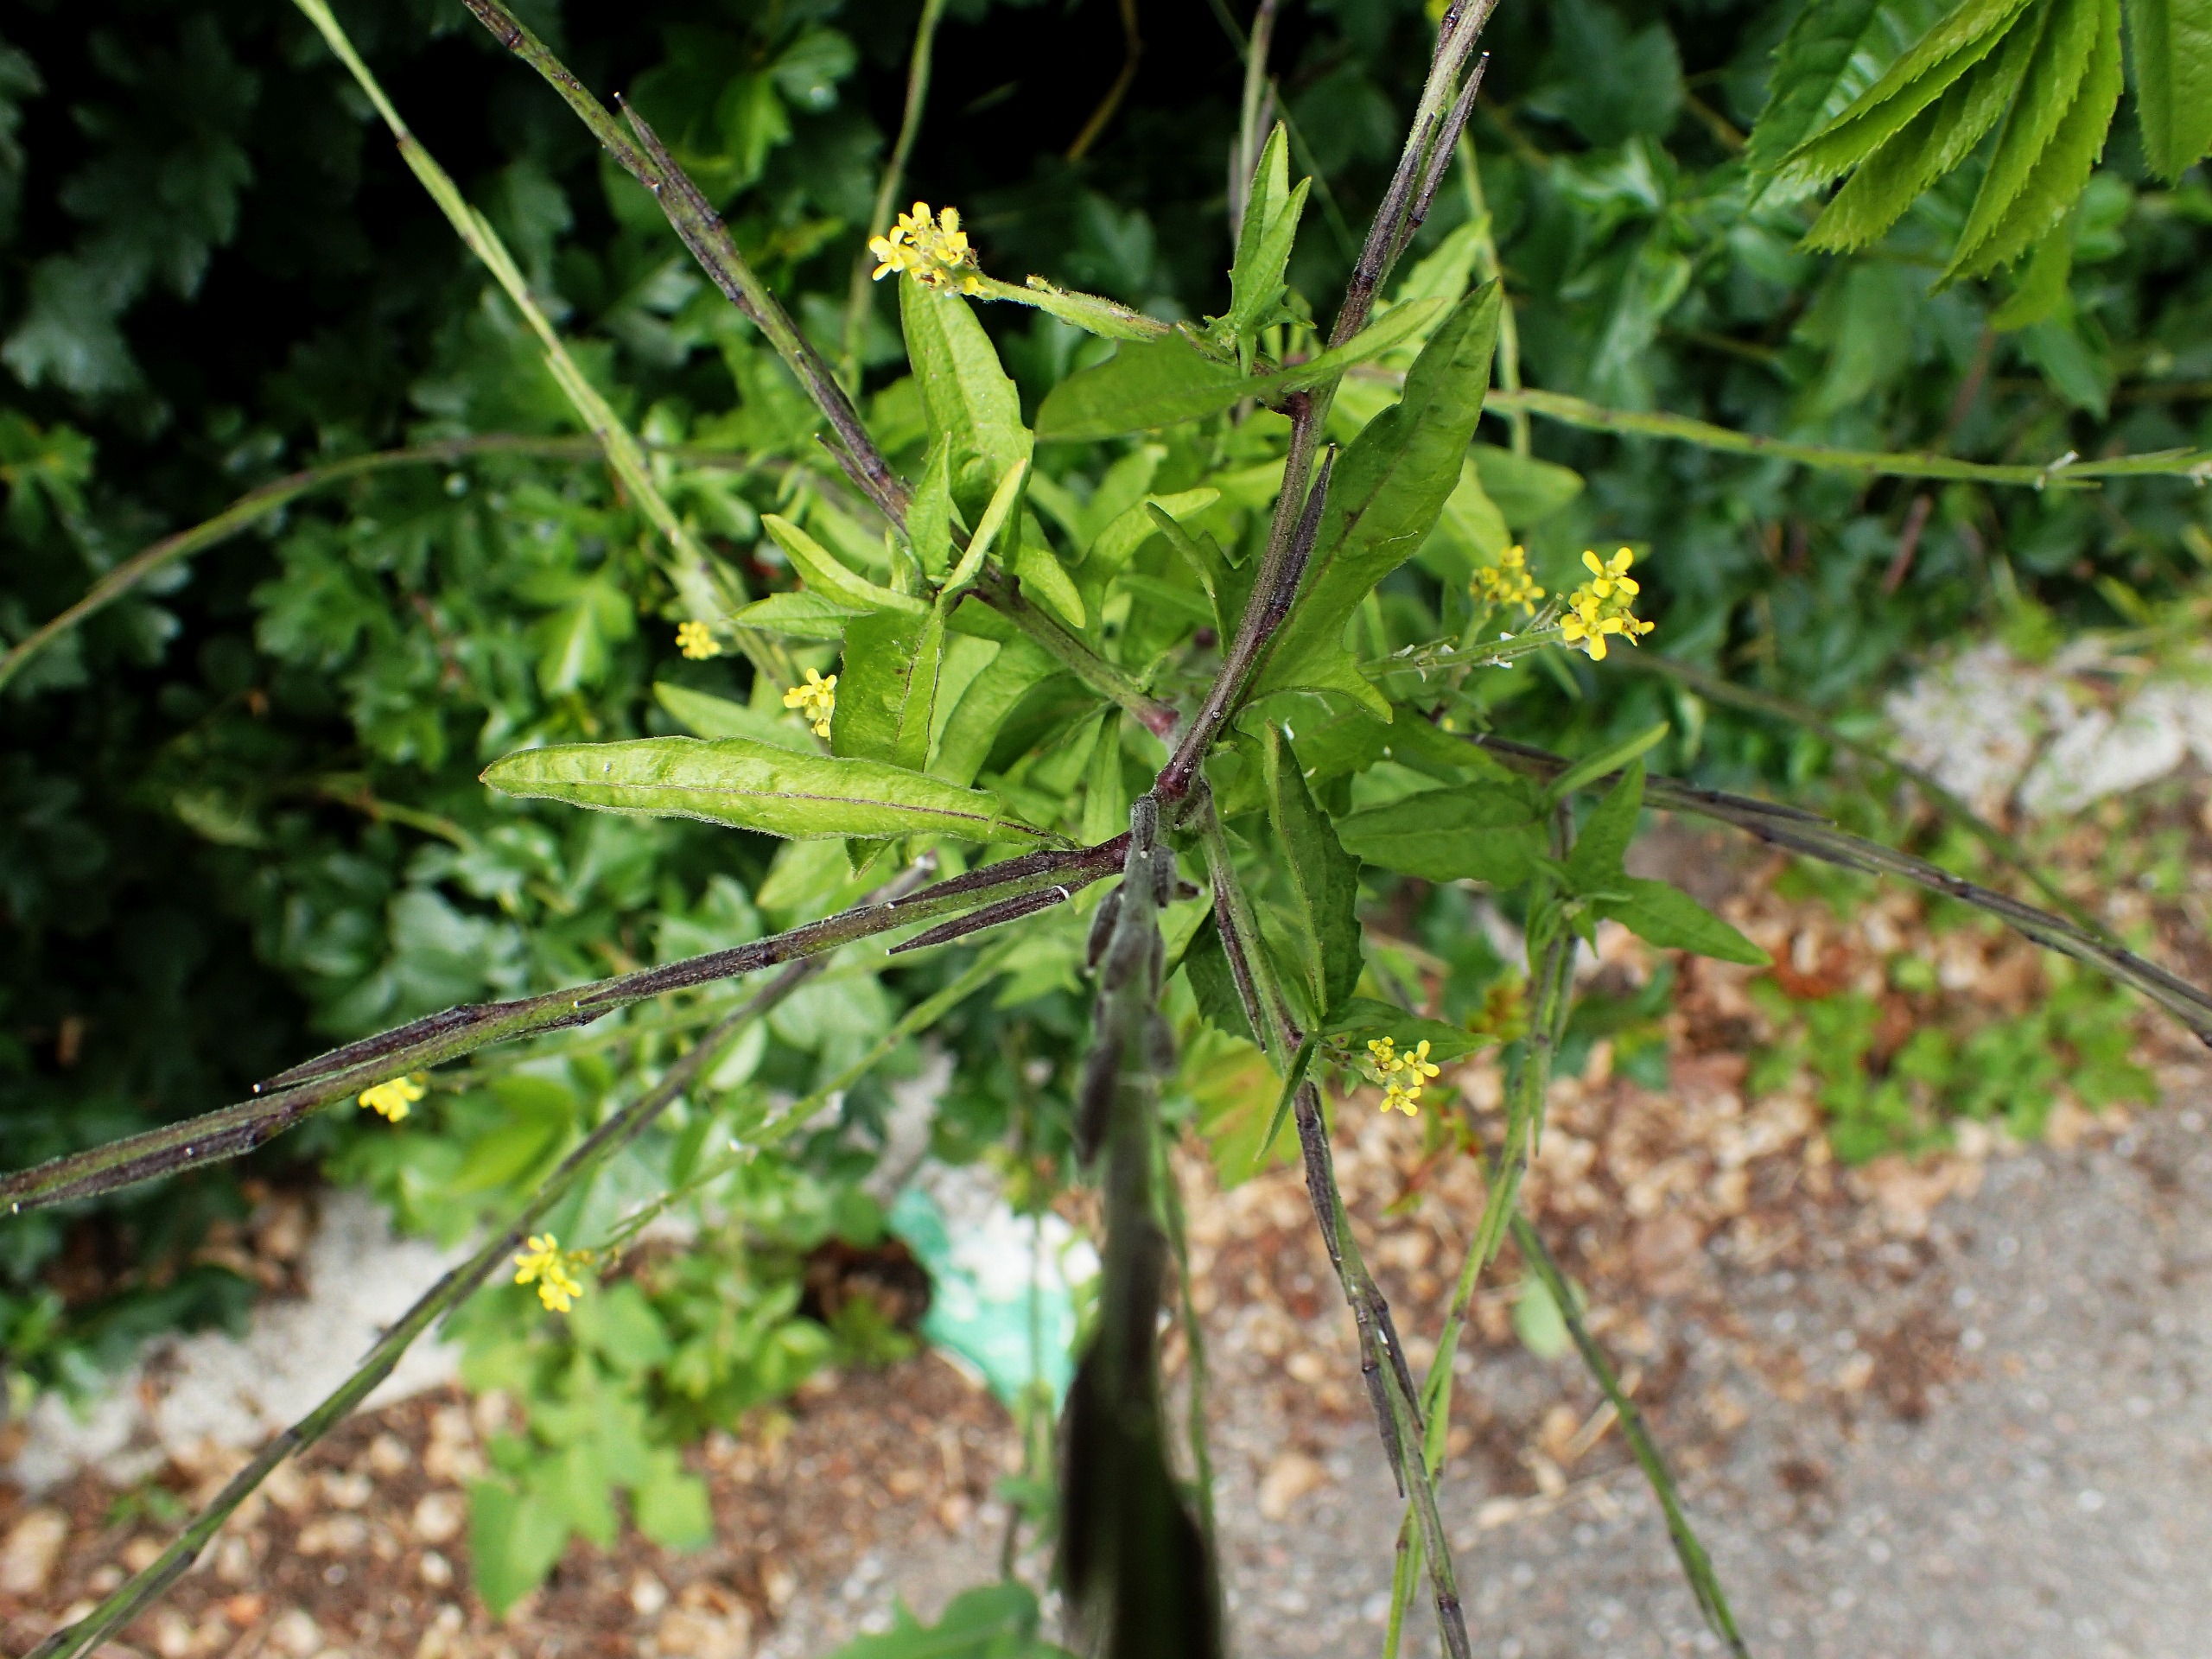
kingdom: Plantae
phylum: Tracheophyta
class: Magnoliopsida
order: Brassicales
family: Brassicaceae
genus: Sisymbrium
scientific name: Sisymbrium officinale
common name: Rank vejsennep
